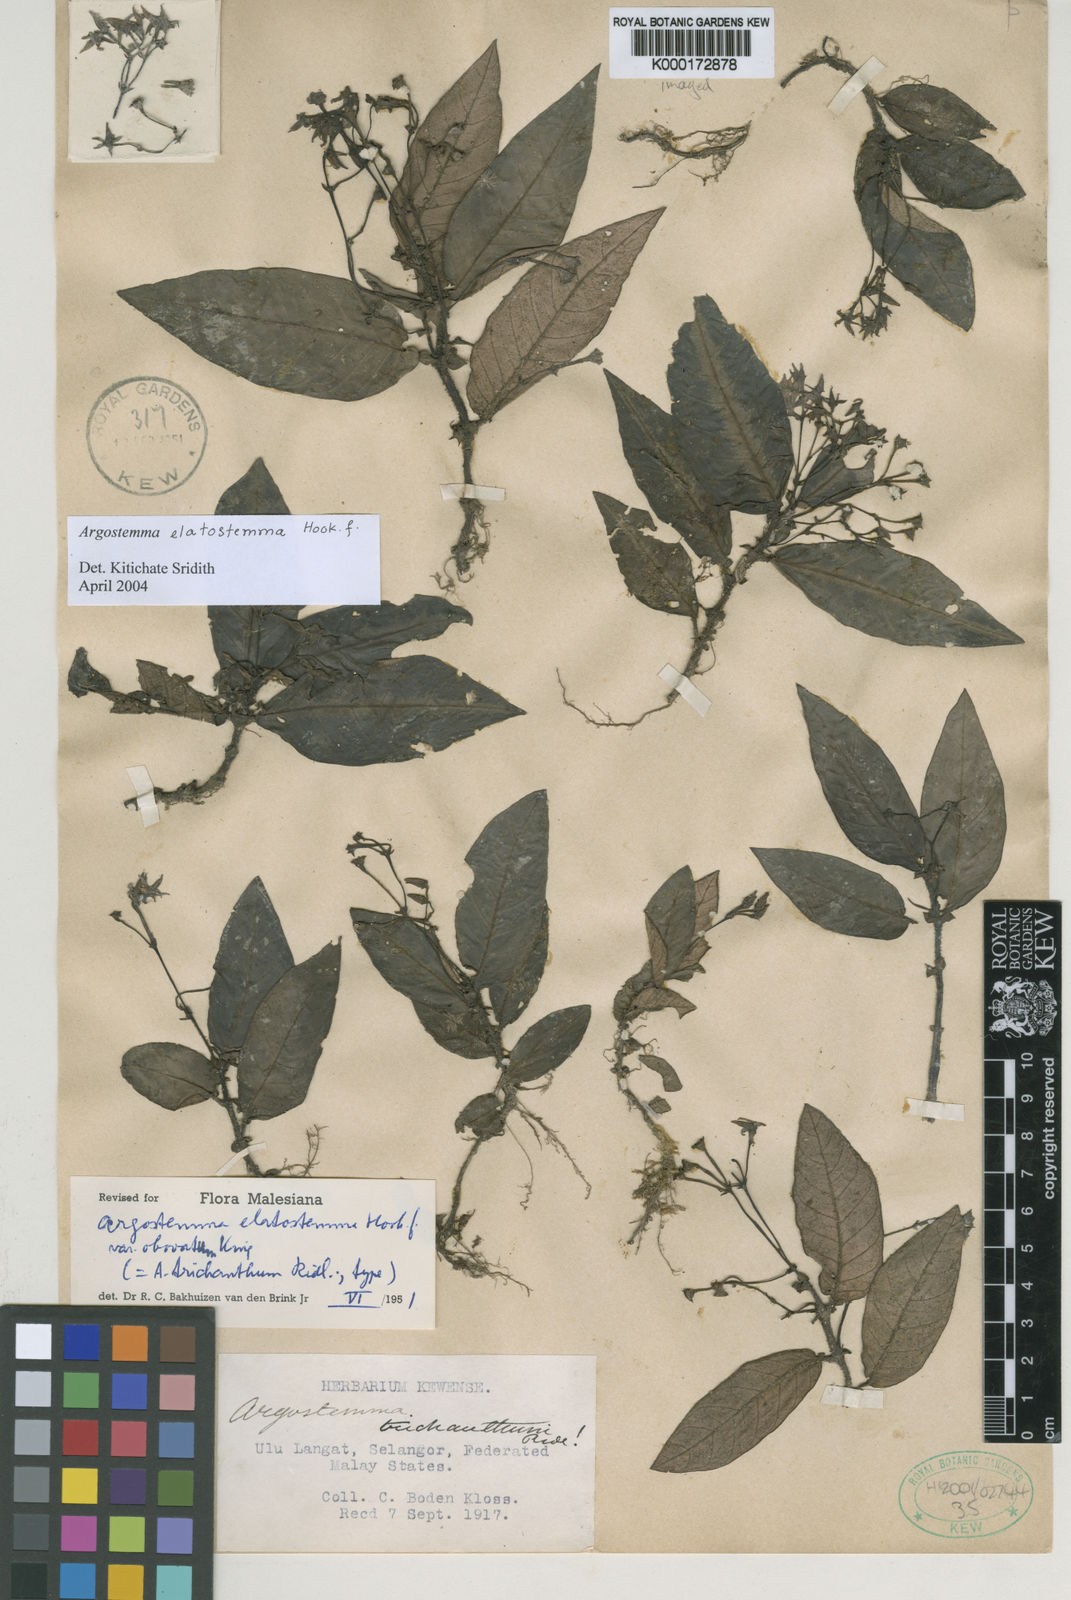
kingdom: Plantae
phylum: Tracheophyta
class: Magnoliopsida
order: Gentianales
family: Rubiaceae
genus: Argostemma
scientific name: Argostemma elatostemma
